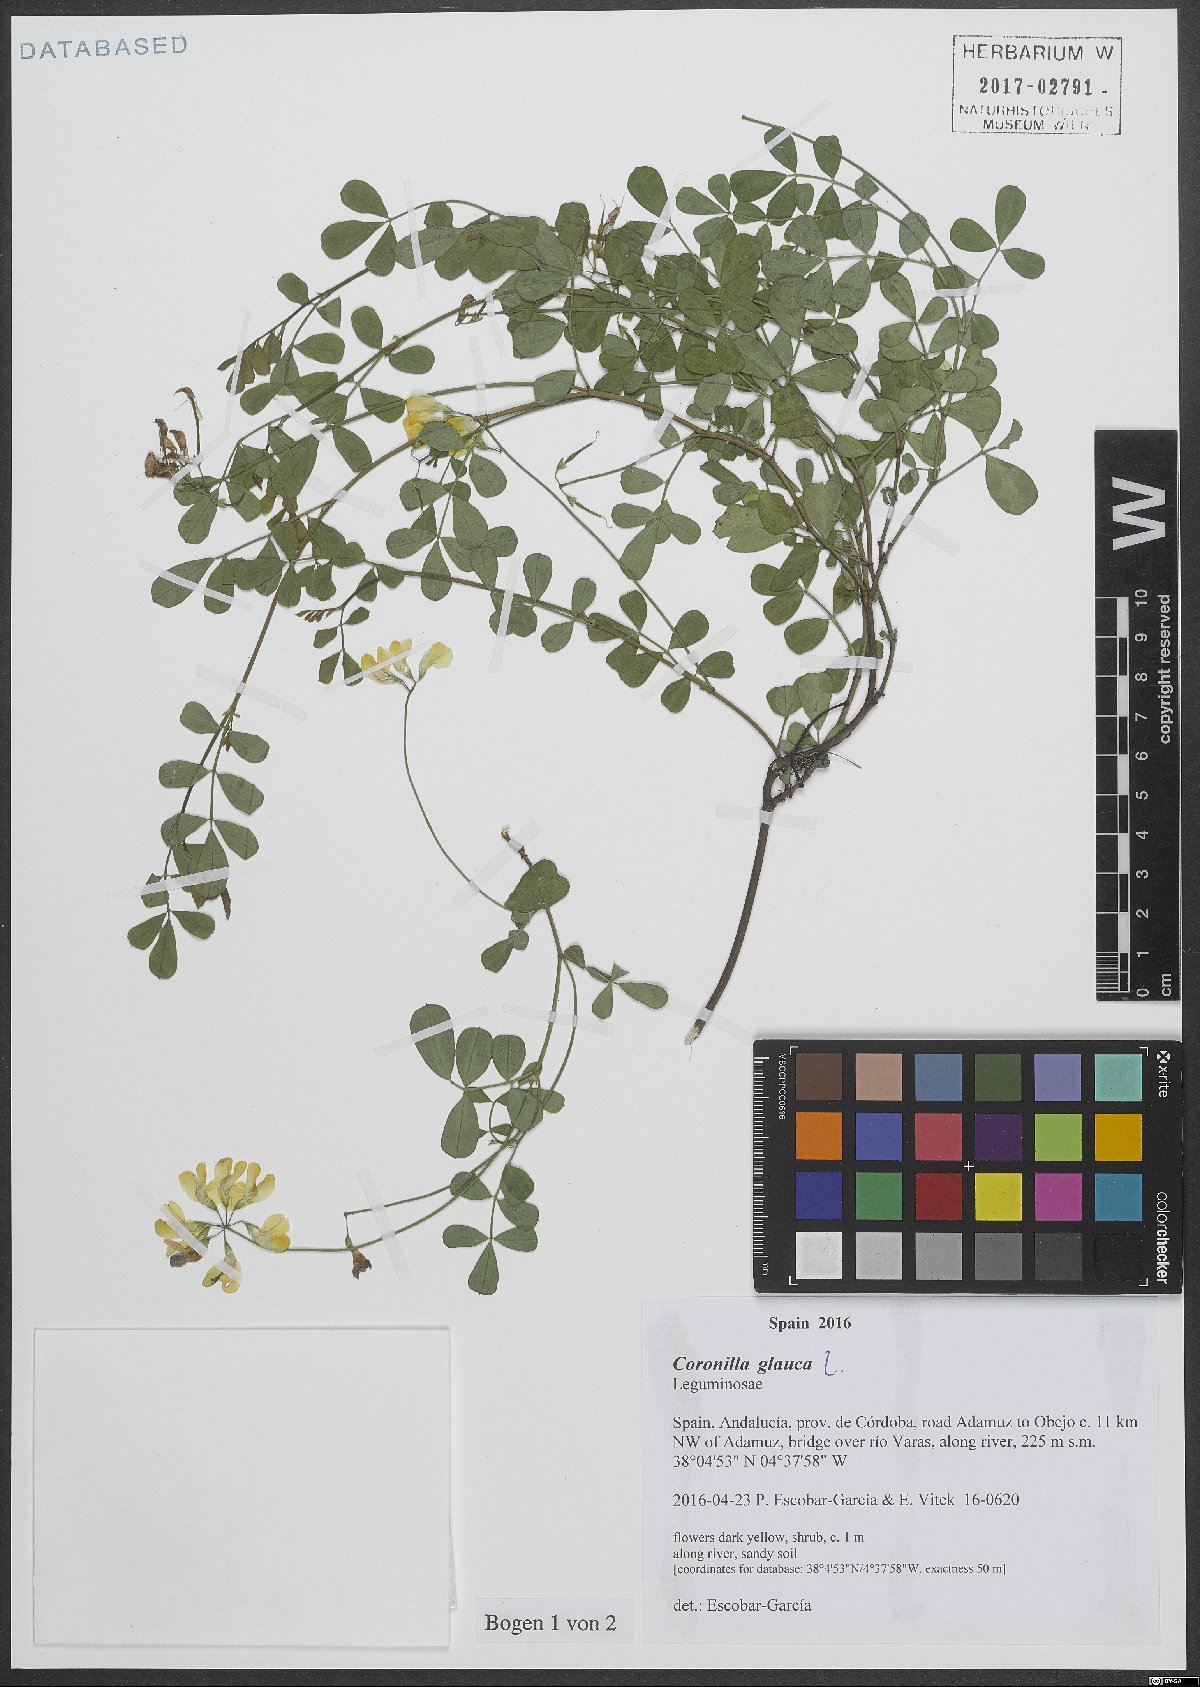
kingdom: Plantae
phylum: Tracheophyta
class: Magnoliopsida
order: Fabales
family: Fabaceae
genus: Coronilla
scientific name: Coronilla valentina
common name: Shrubby scorpion-vetch
